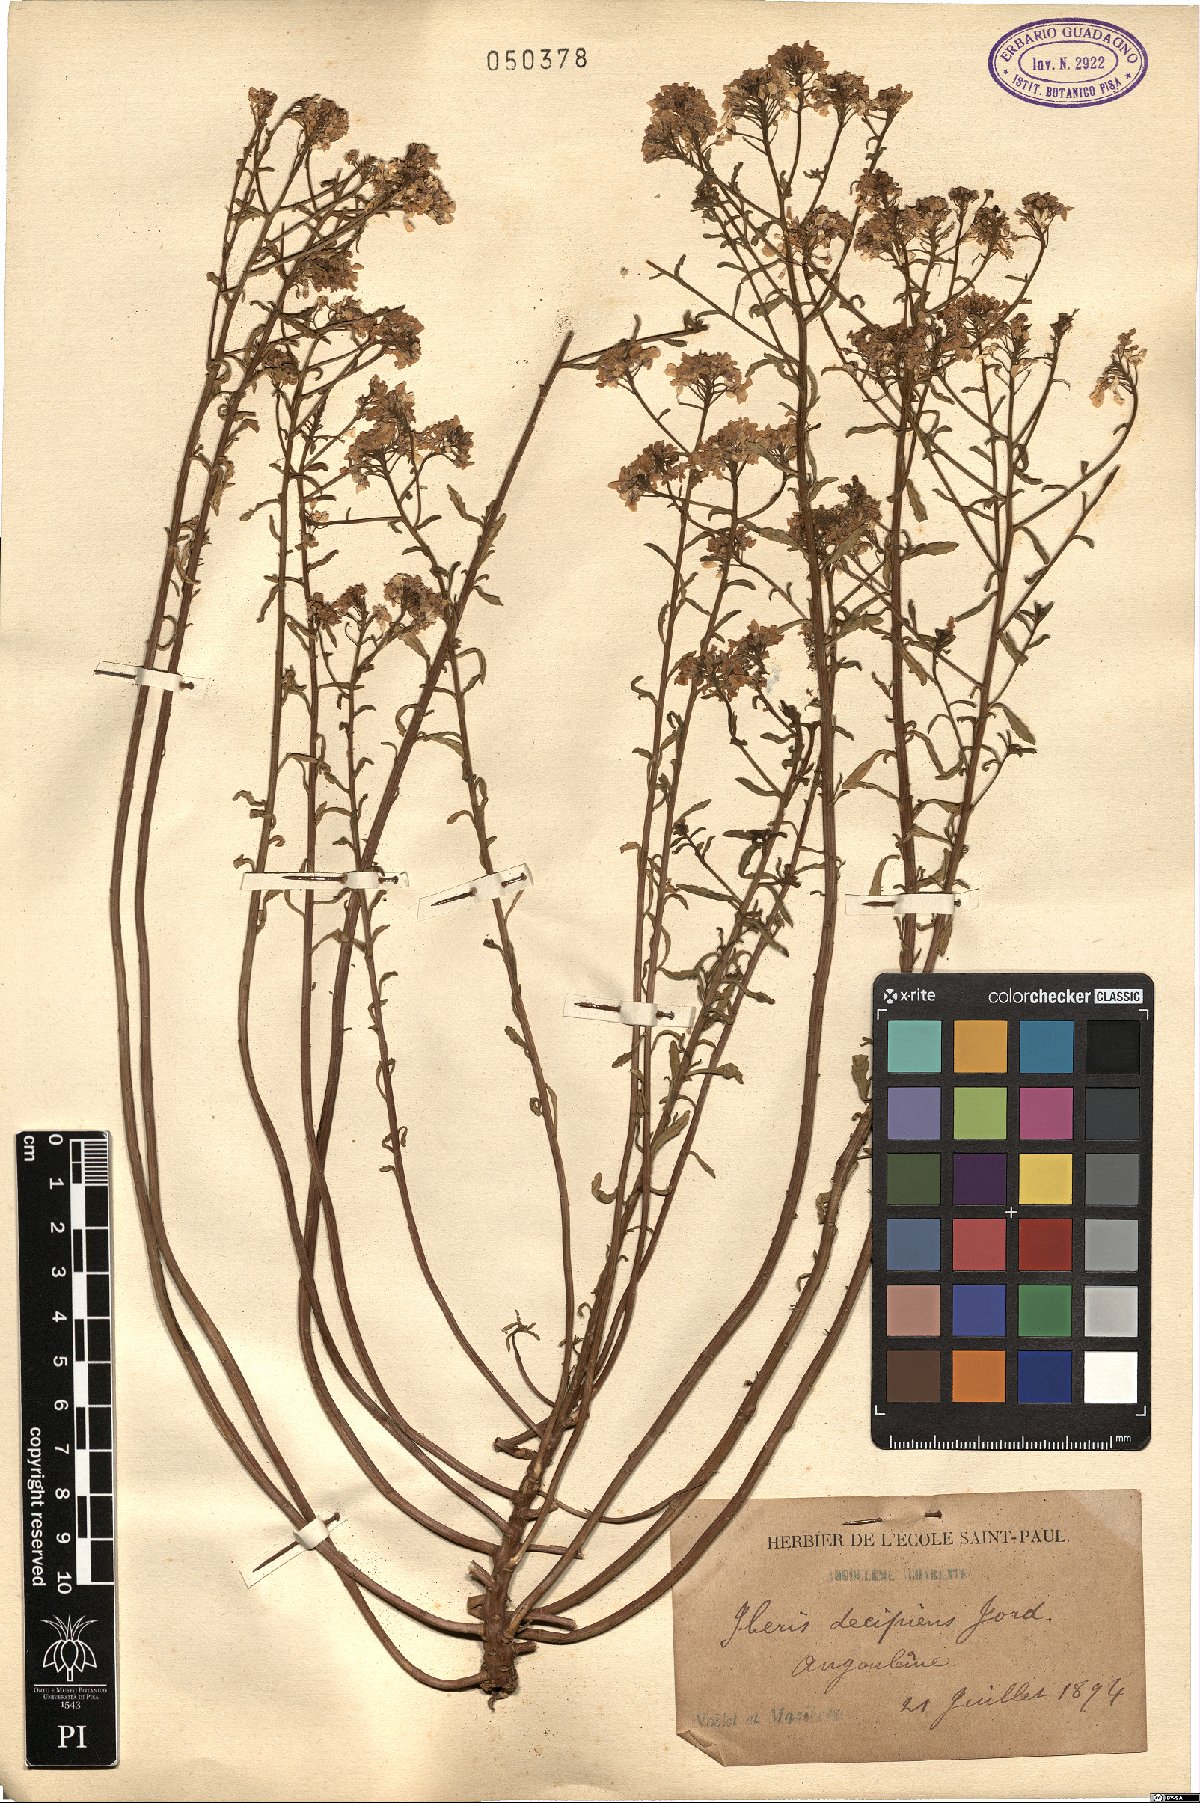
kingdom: Plantae
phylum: Tracheophyta
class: Magnoliopsida
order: Brassicales
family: Brassicaceae
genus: Iberis
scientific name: Iberis amara
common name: Annual candytuft
